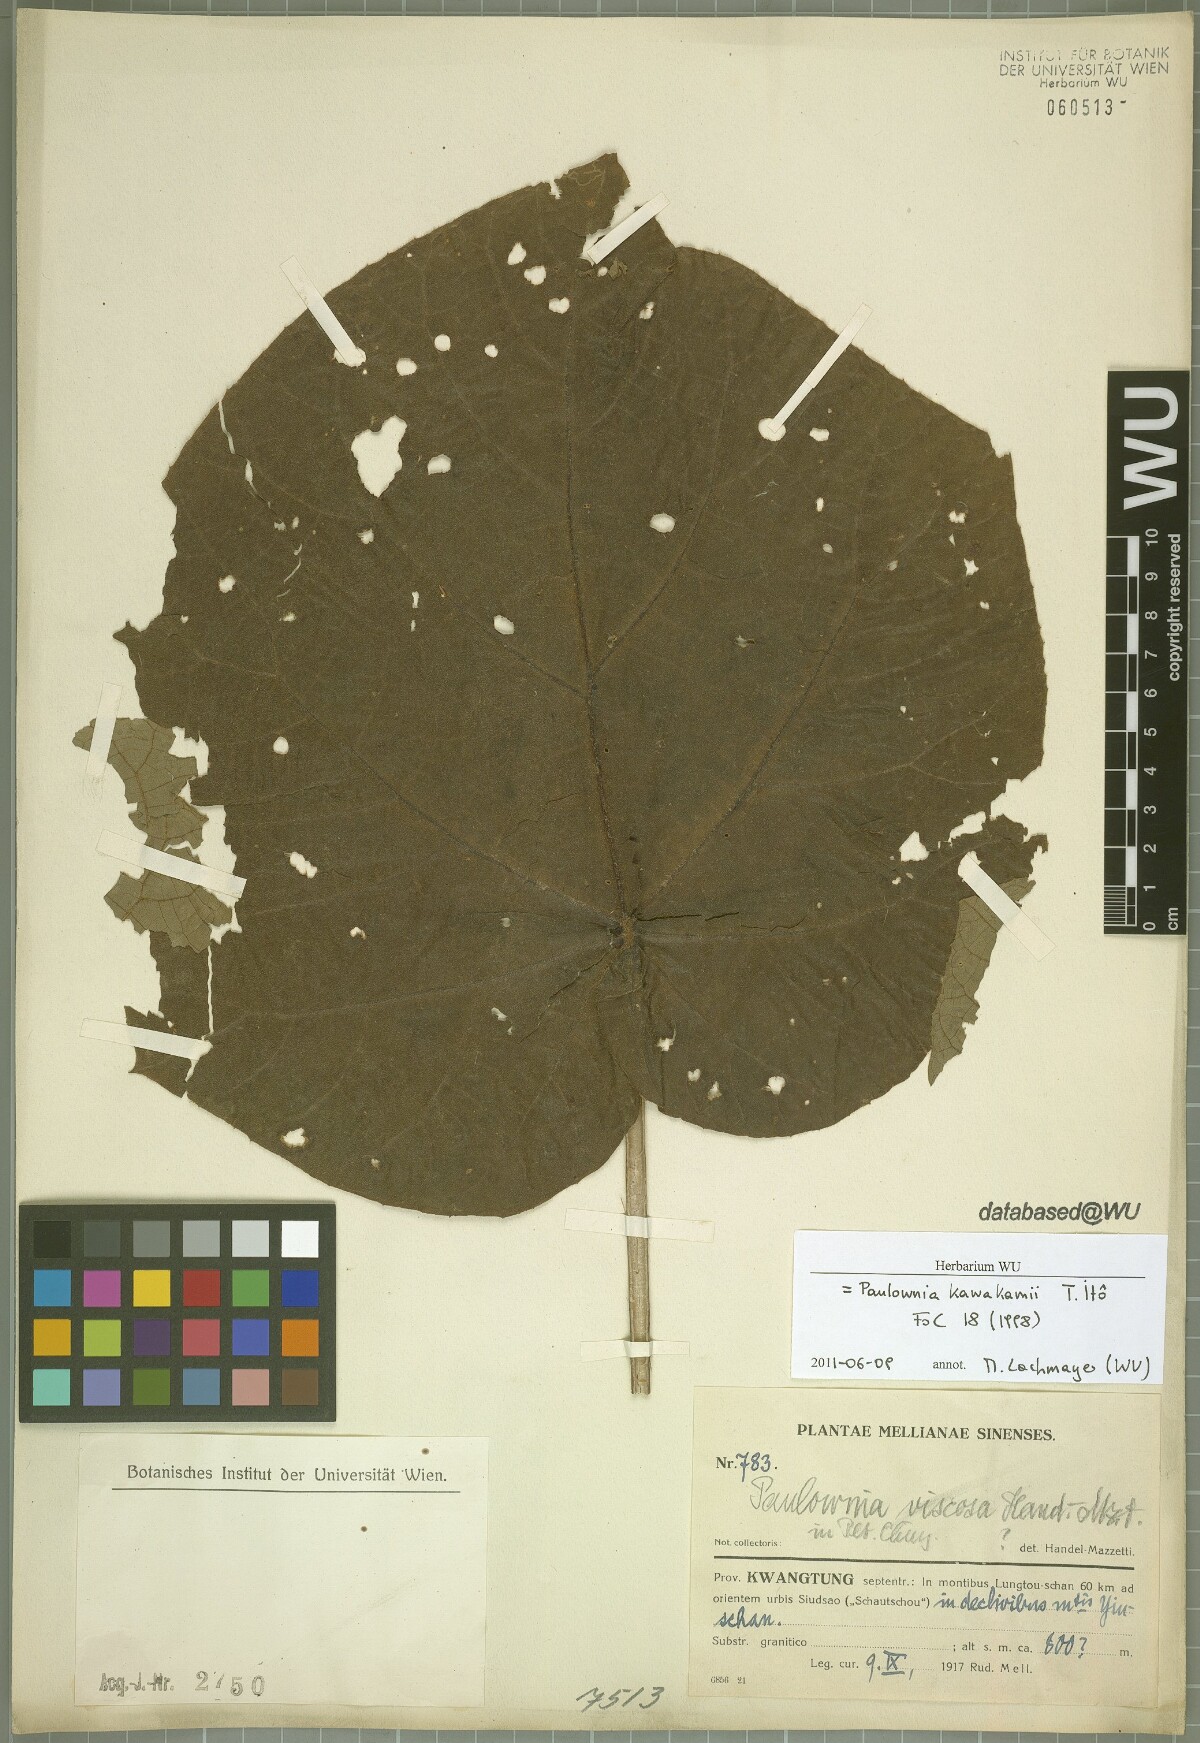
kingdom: Plantae
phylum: Tracheophyta
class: Magnoliopsida
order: Lamiales
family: Paulowniaceae
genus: Paulownia
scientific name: Paulownia kawakamii
